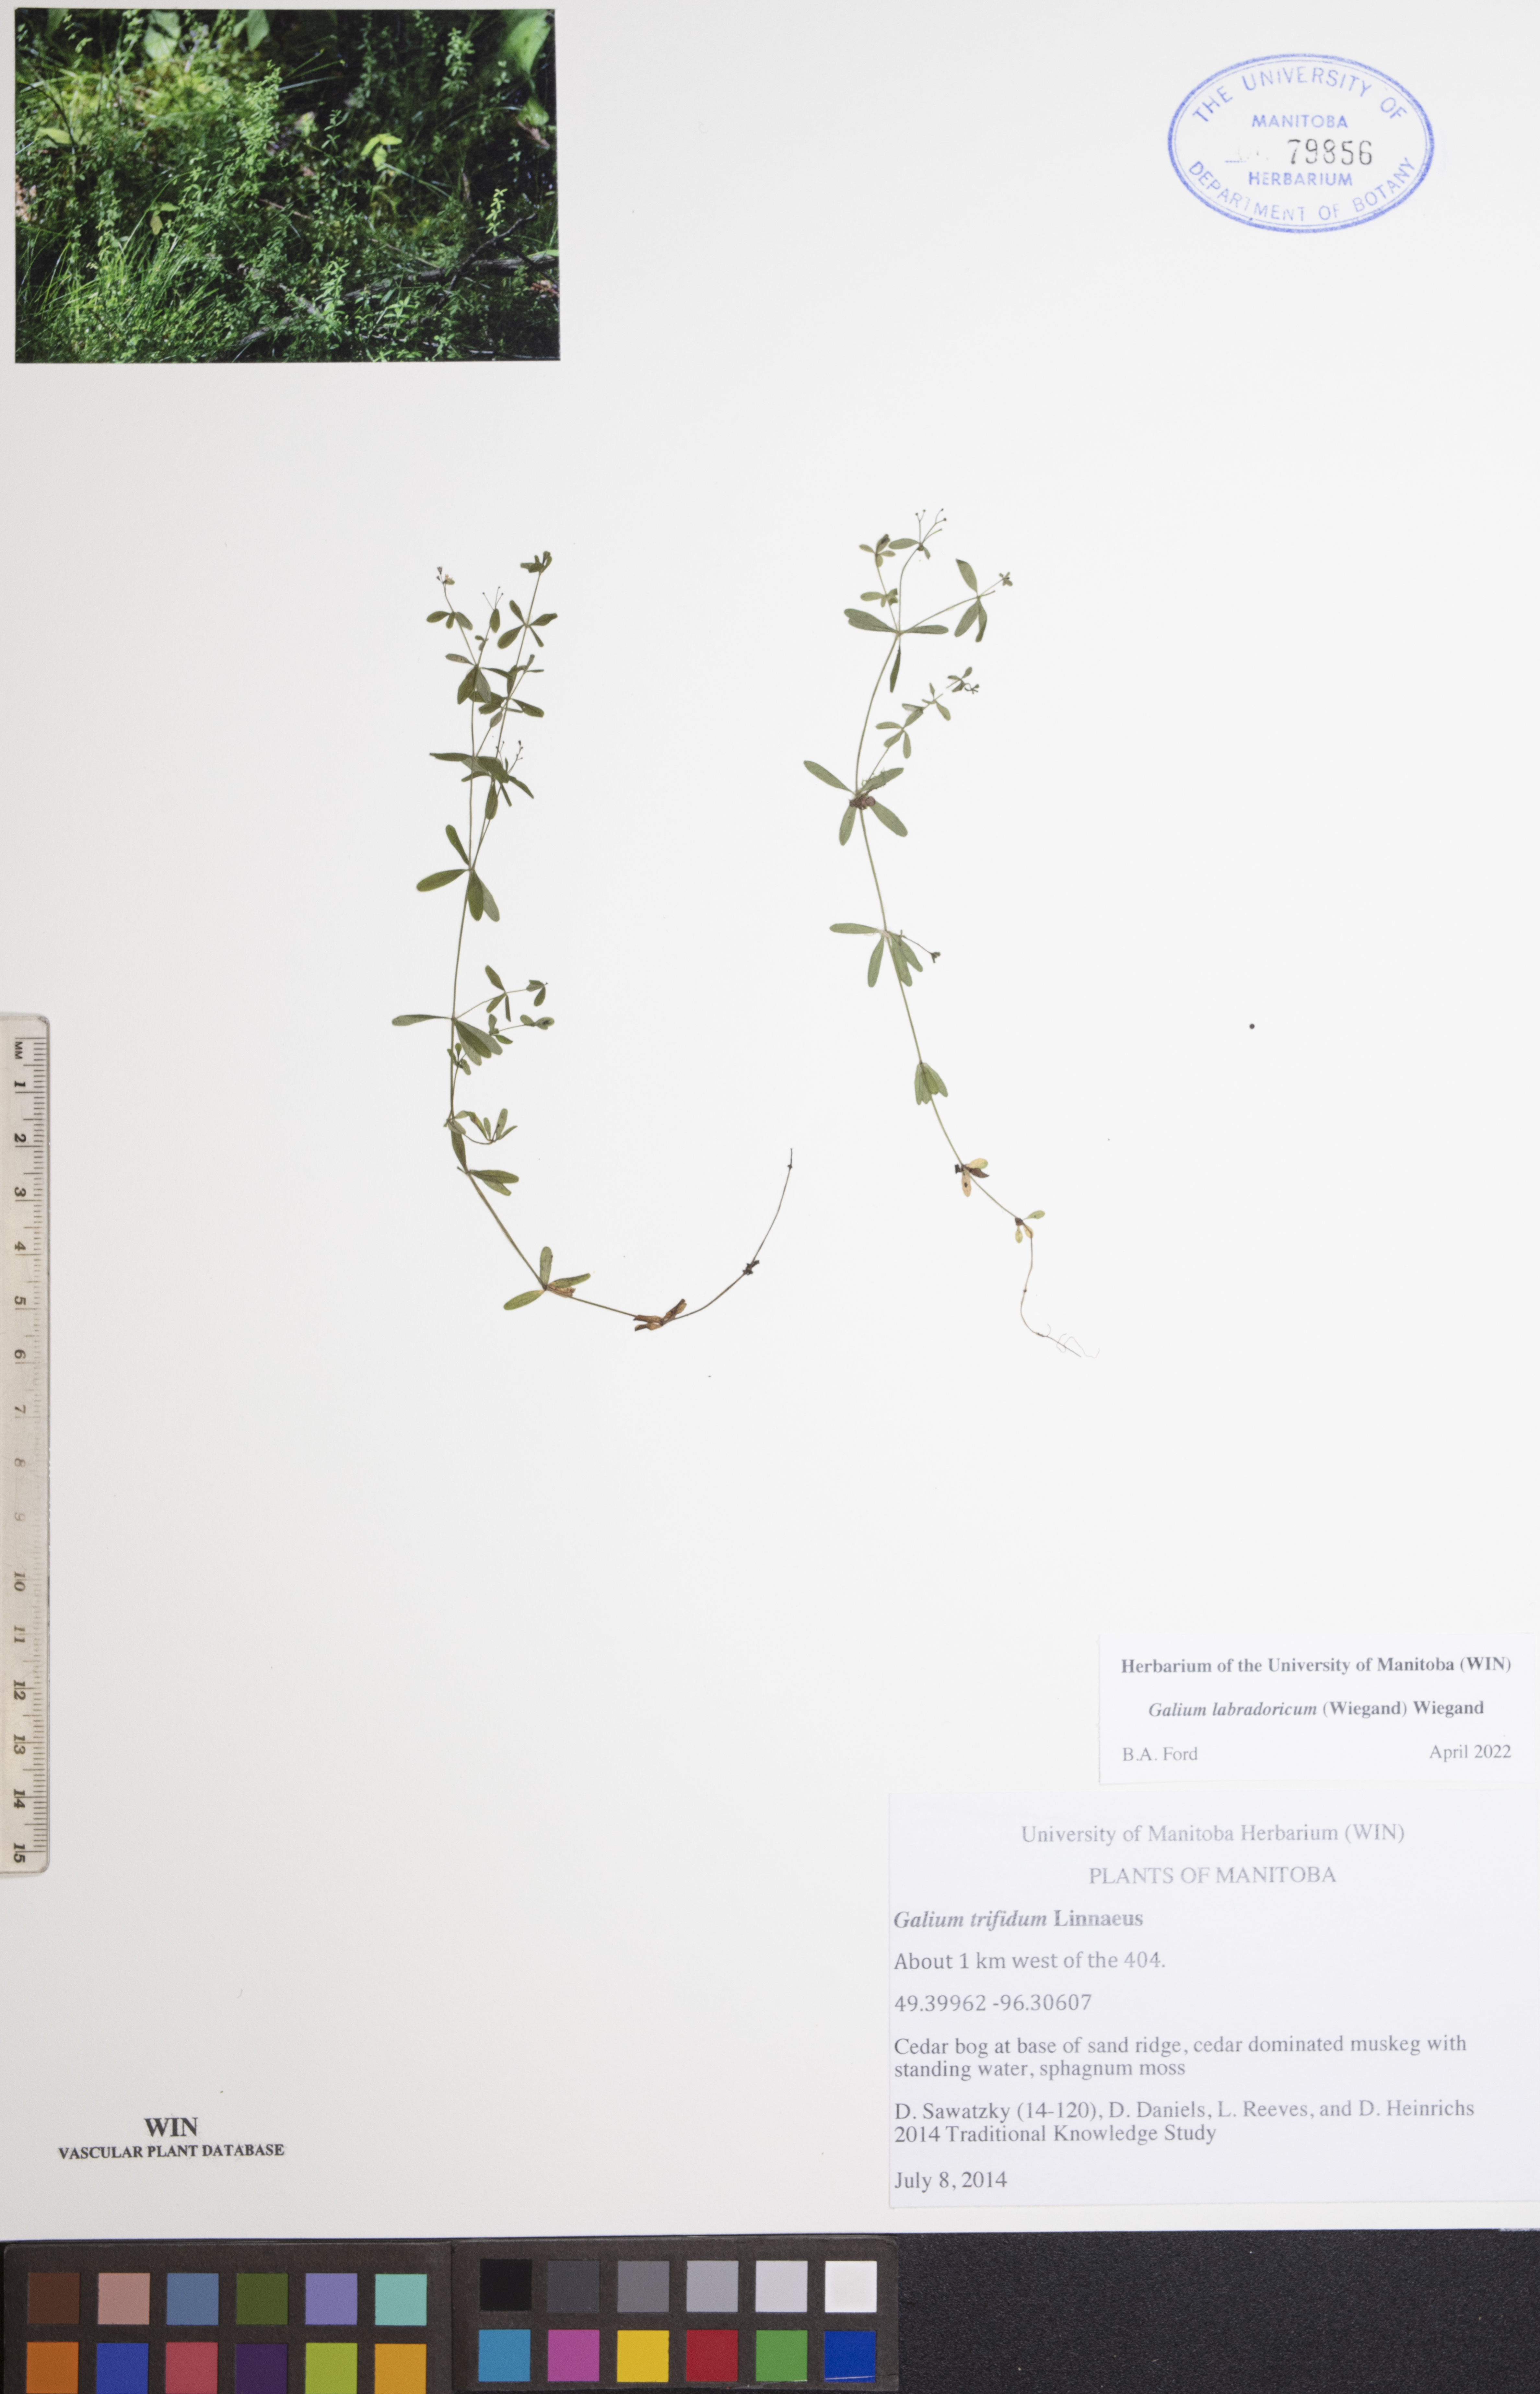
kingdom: Plantae
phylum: Tracheophyta
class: Magnoliopsida
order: Gentianales
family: Rubiaceae
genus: Galium
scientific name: Galium labradoricum
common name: Labrador bedstraw
